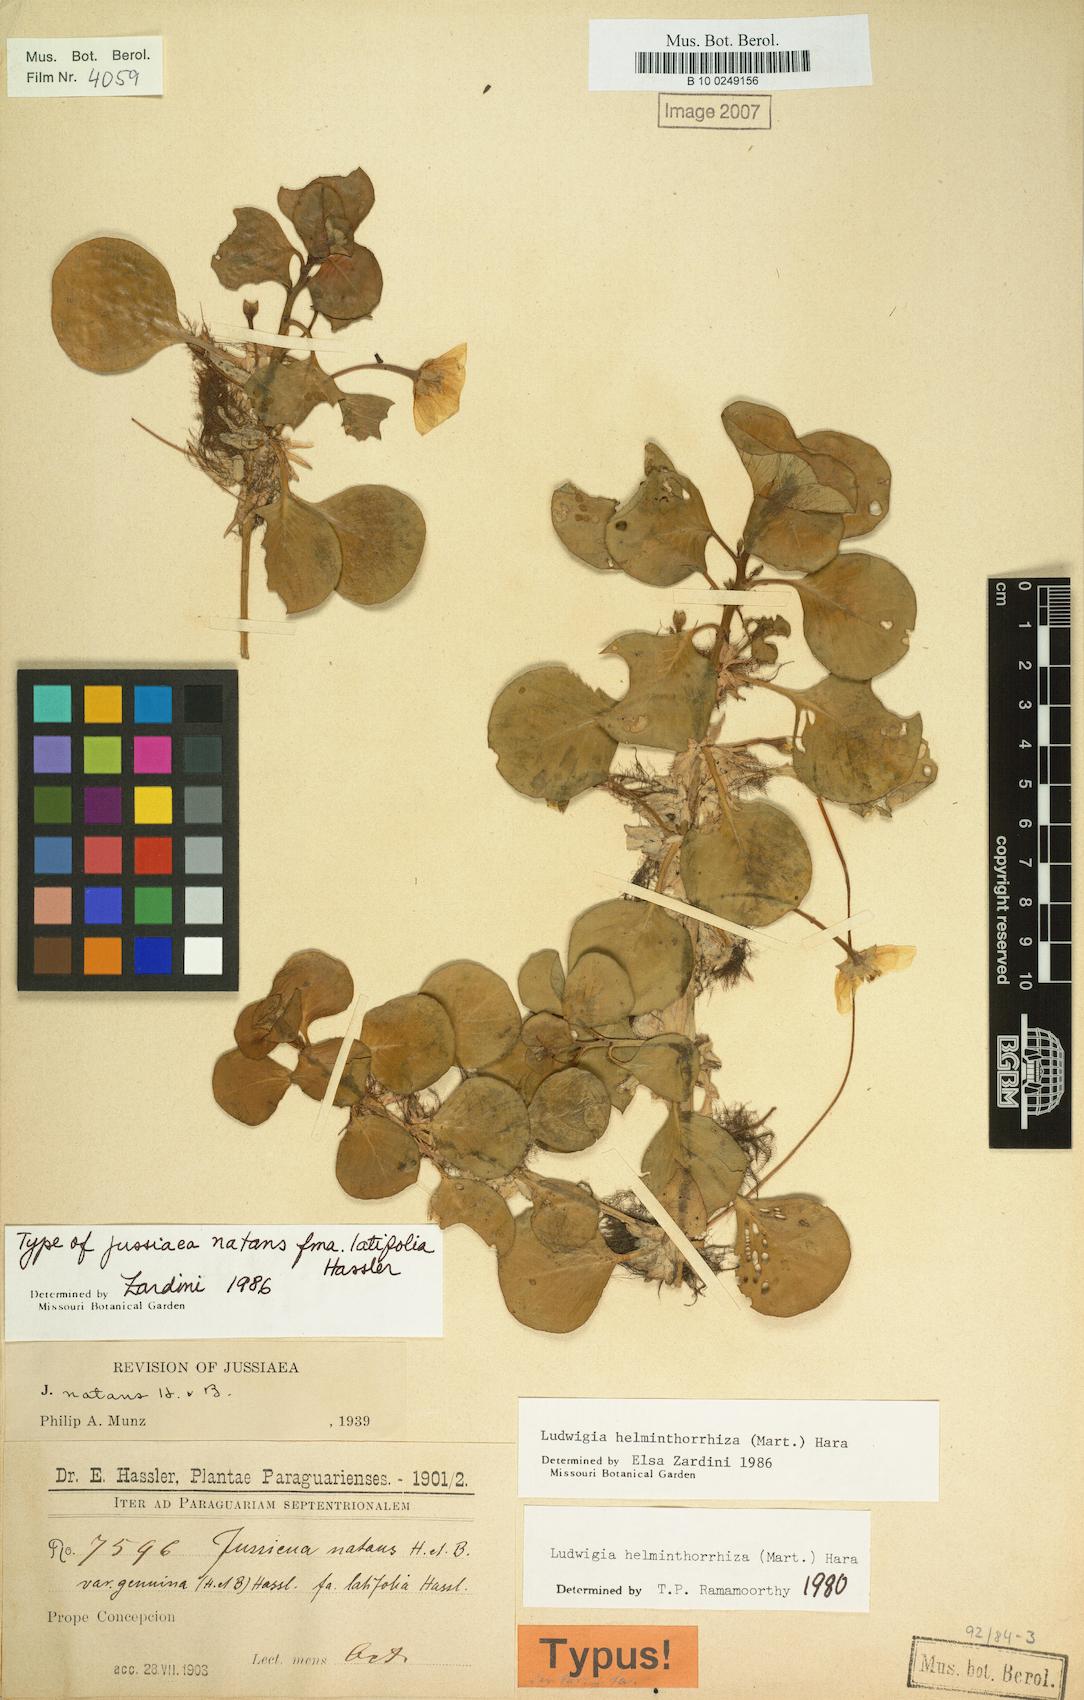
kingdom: Plantae
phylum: Tracheophyta
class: Magnoliopsida
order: Myrtales
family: Onagraceae
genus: Ludwigia
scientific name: Ludwigia helminthorrhiza
